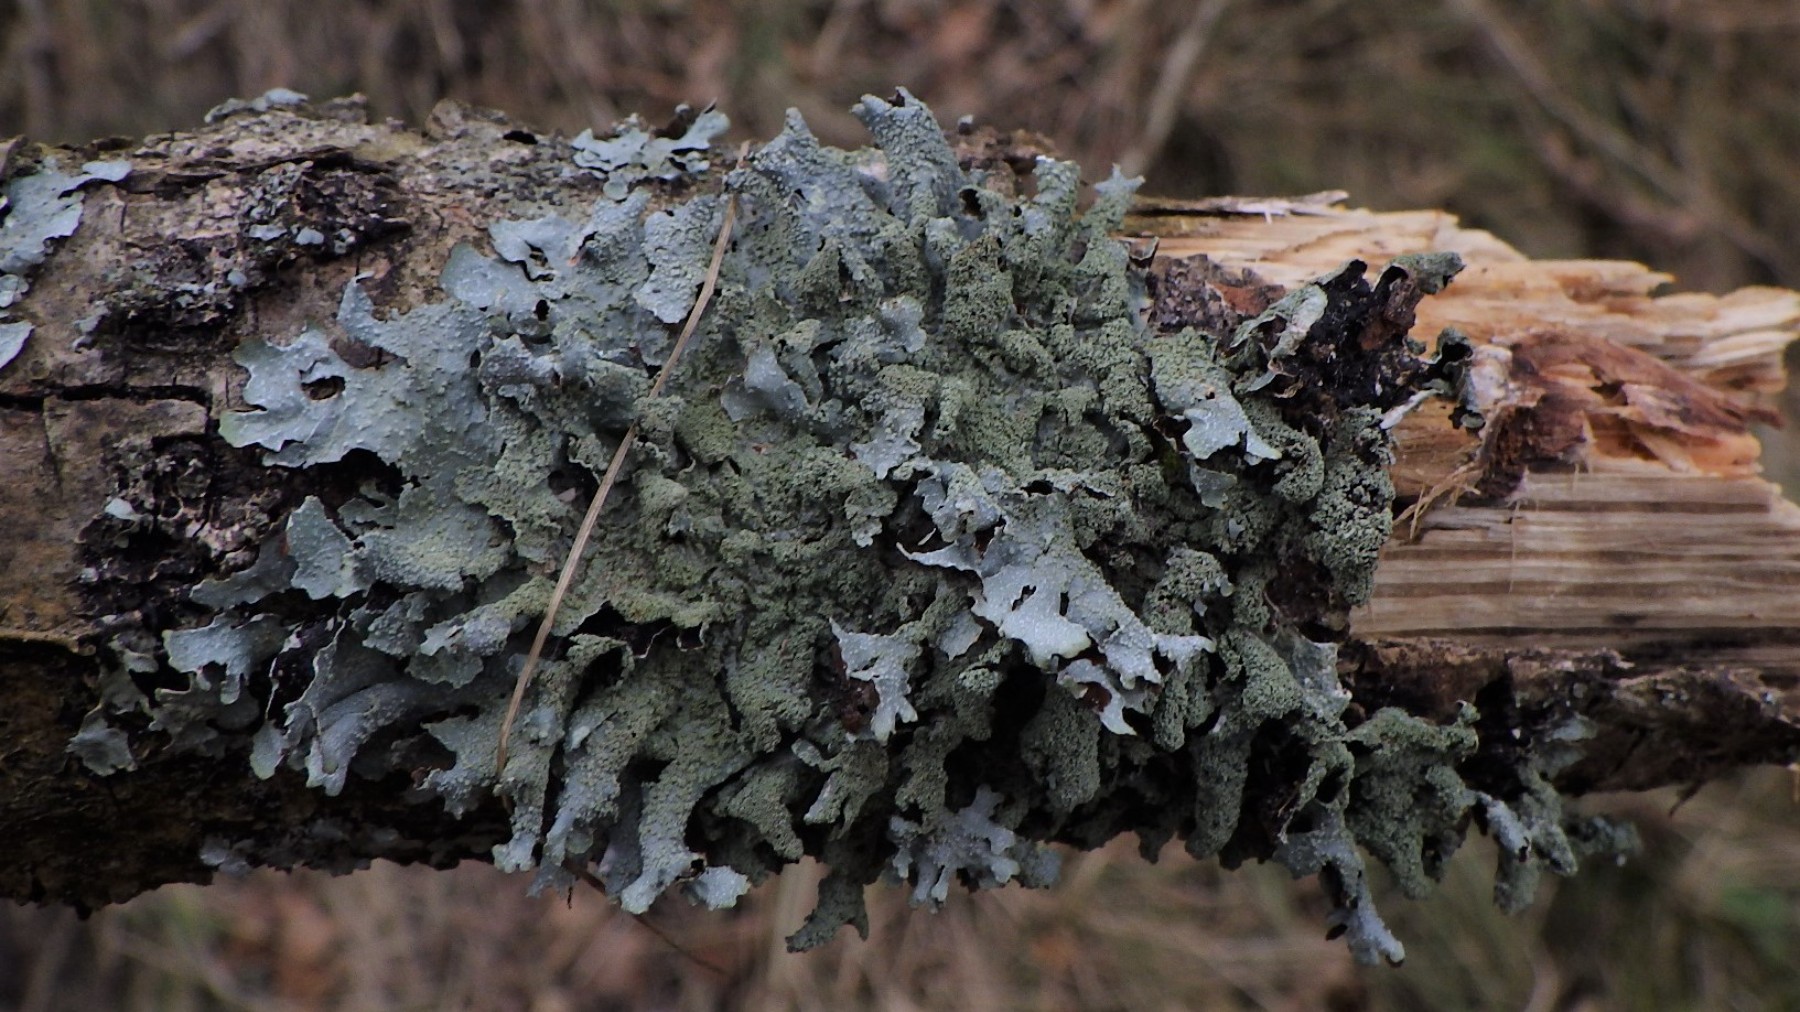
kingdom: Fungi
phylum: Ascomycota
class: Lecanoromycetes
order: Lecanorales
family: Parmeliaceae
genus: Parmelia
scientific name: Parmelia submontana
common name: langlobet skållav
